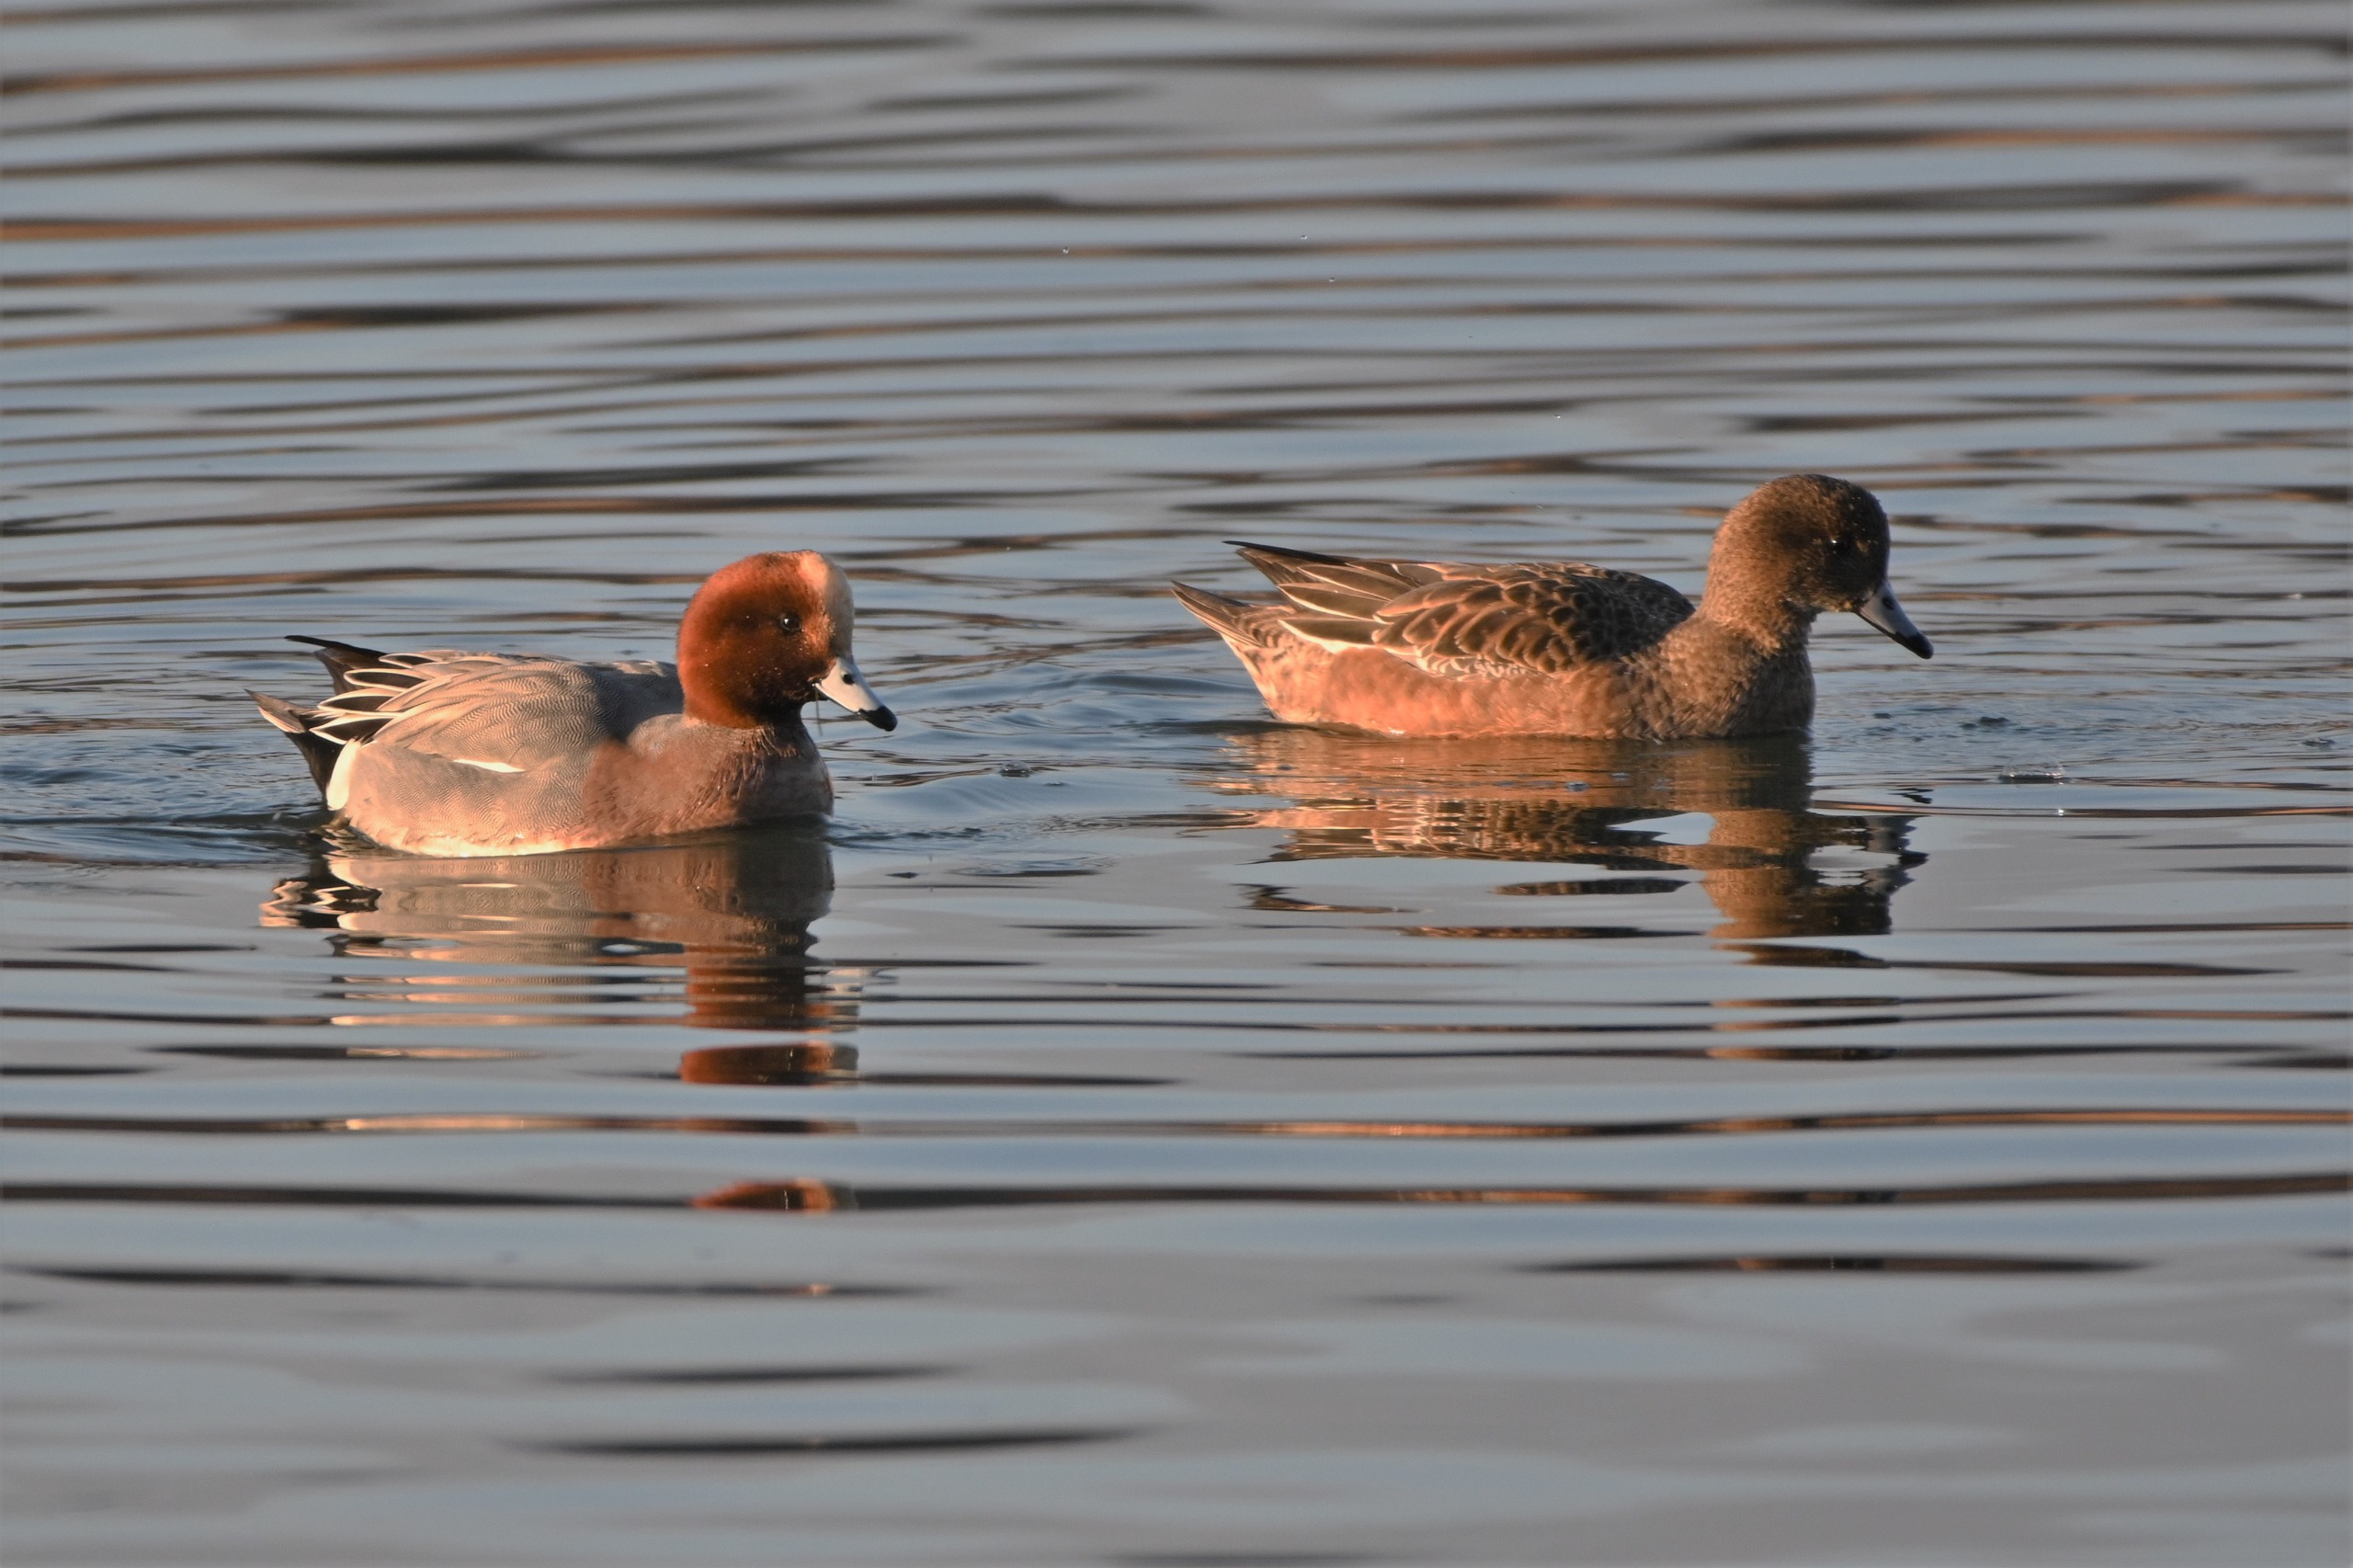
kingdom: Animalia
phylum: Chordata
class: Aves
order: Anseriformes
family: Anatidae
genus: Mareca
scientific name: Mareca penelope
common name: Pibeand
